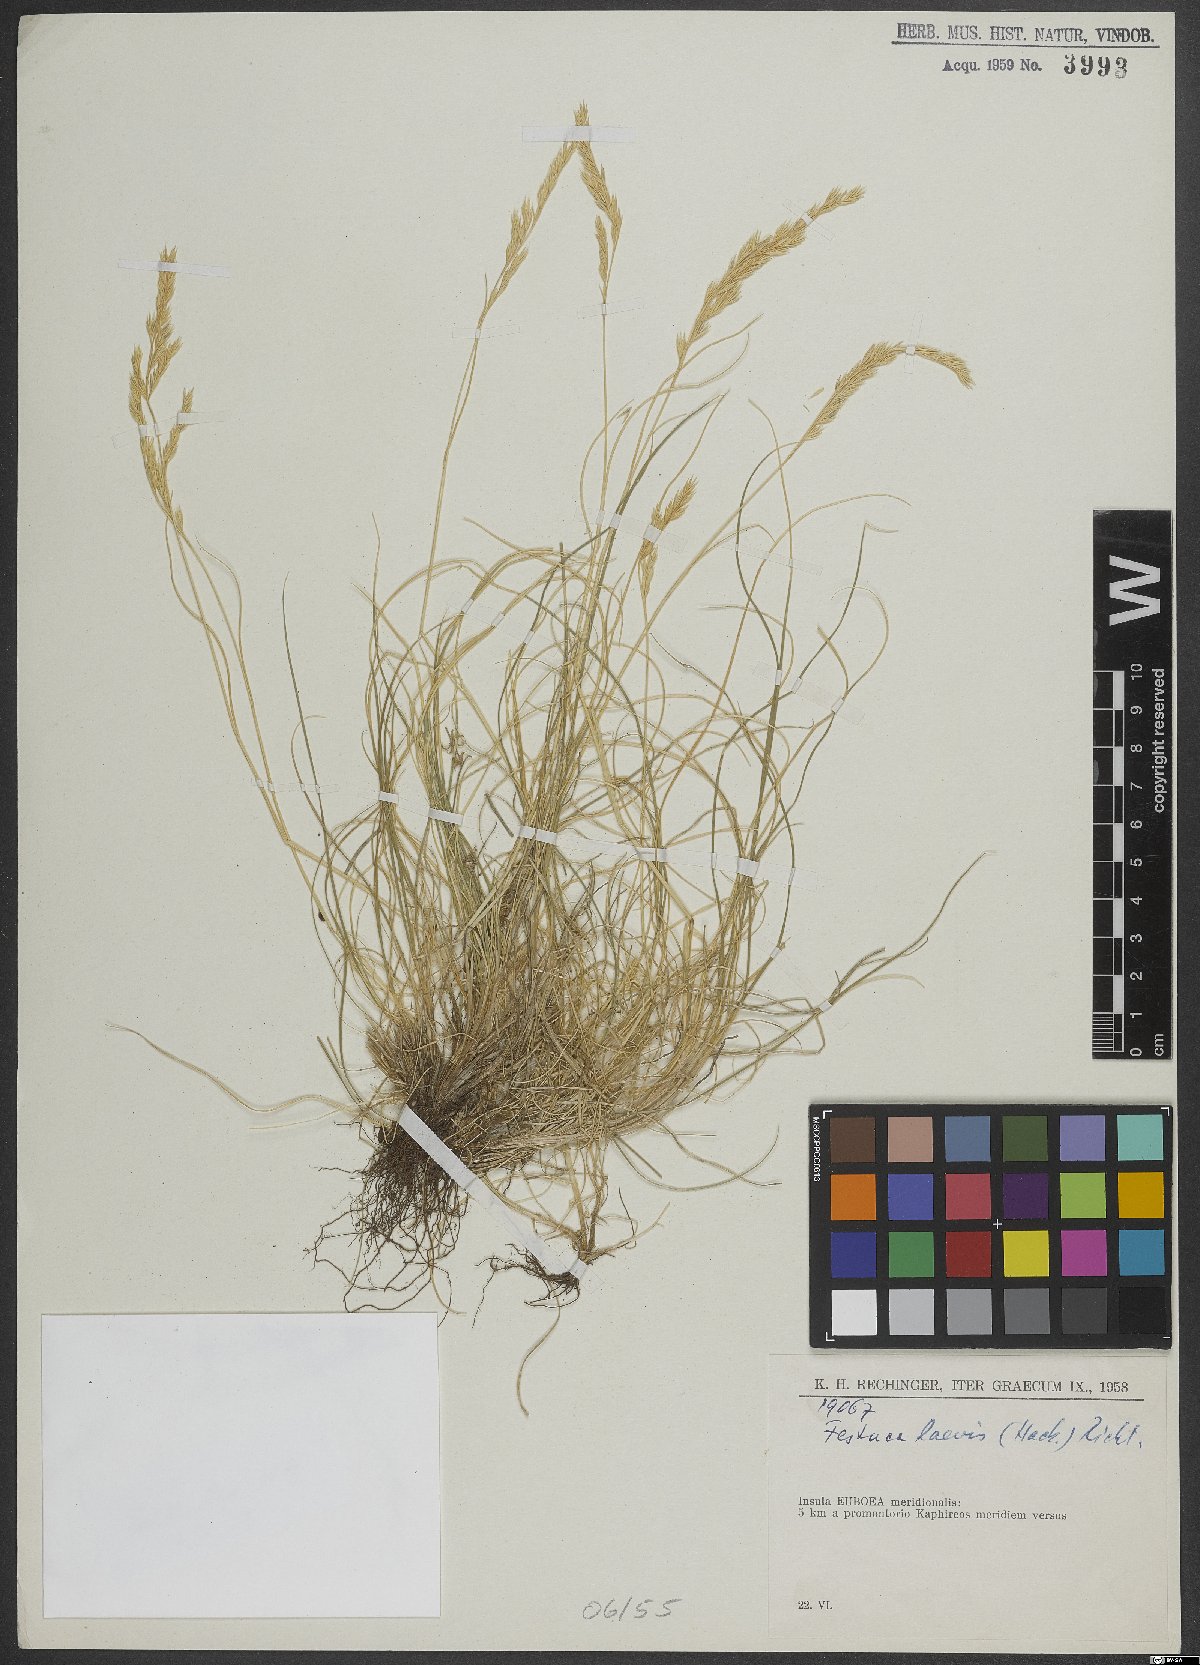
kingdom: Plantae
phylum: Tracheophyta
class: Liliopsida
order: Poales
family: Poaceae
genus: Festuca
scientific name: Festuca circummediterranea
